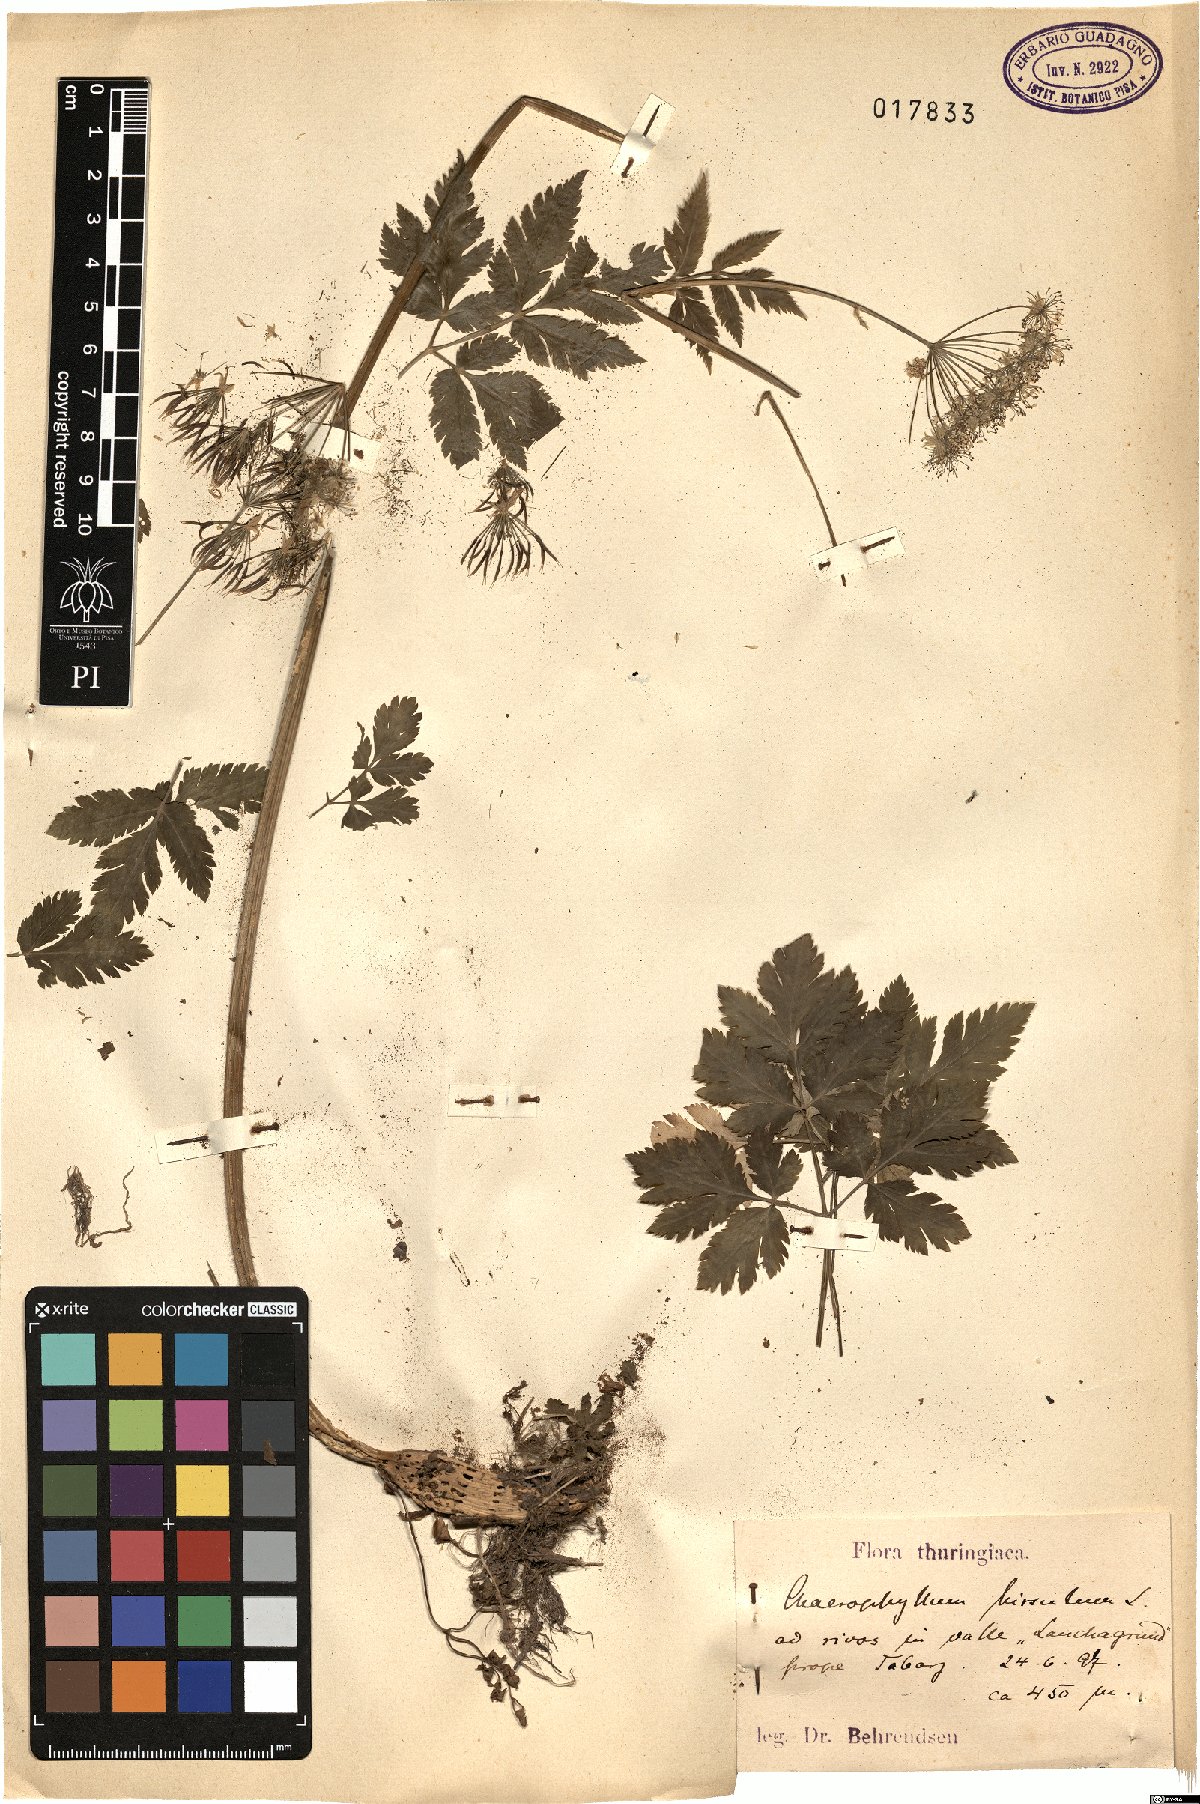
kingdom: Plantae
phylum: Tracheophyta
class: Magnoliopsida
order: Apiales
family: Apiaceae
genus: Chaerophyllum
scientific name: Chaerophyllum hirsutum
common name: Hairy chervil
